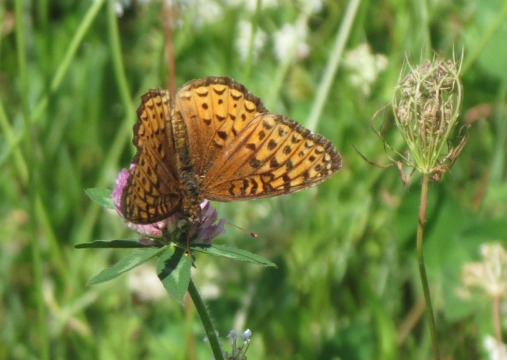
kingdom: Animalia
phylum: Arthropoda
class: Insecta
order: Lepidoptera
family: Nymphalidae
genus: Speyeria
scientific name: Speyeria atlantis
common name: Atlantis Fritillary
